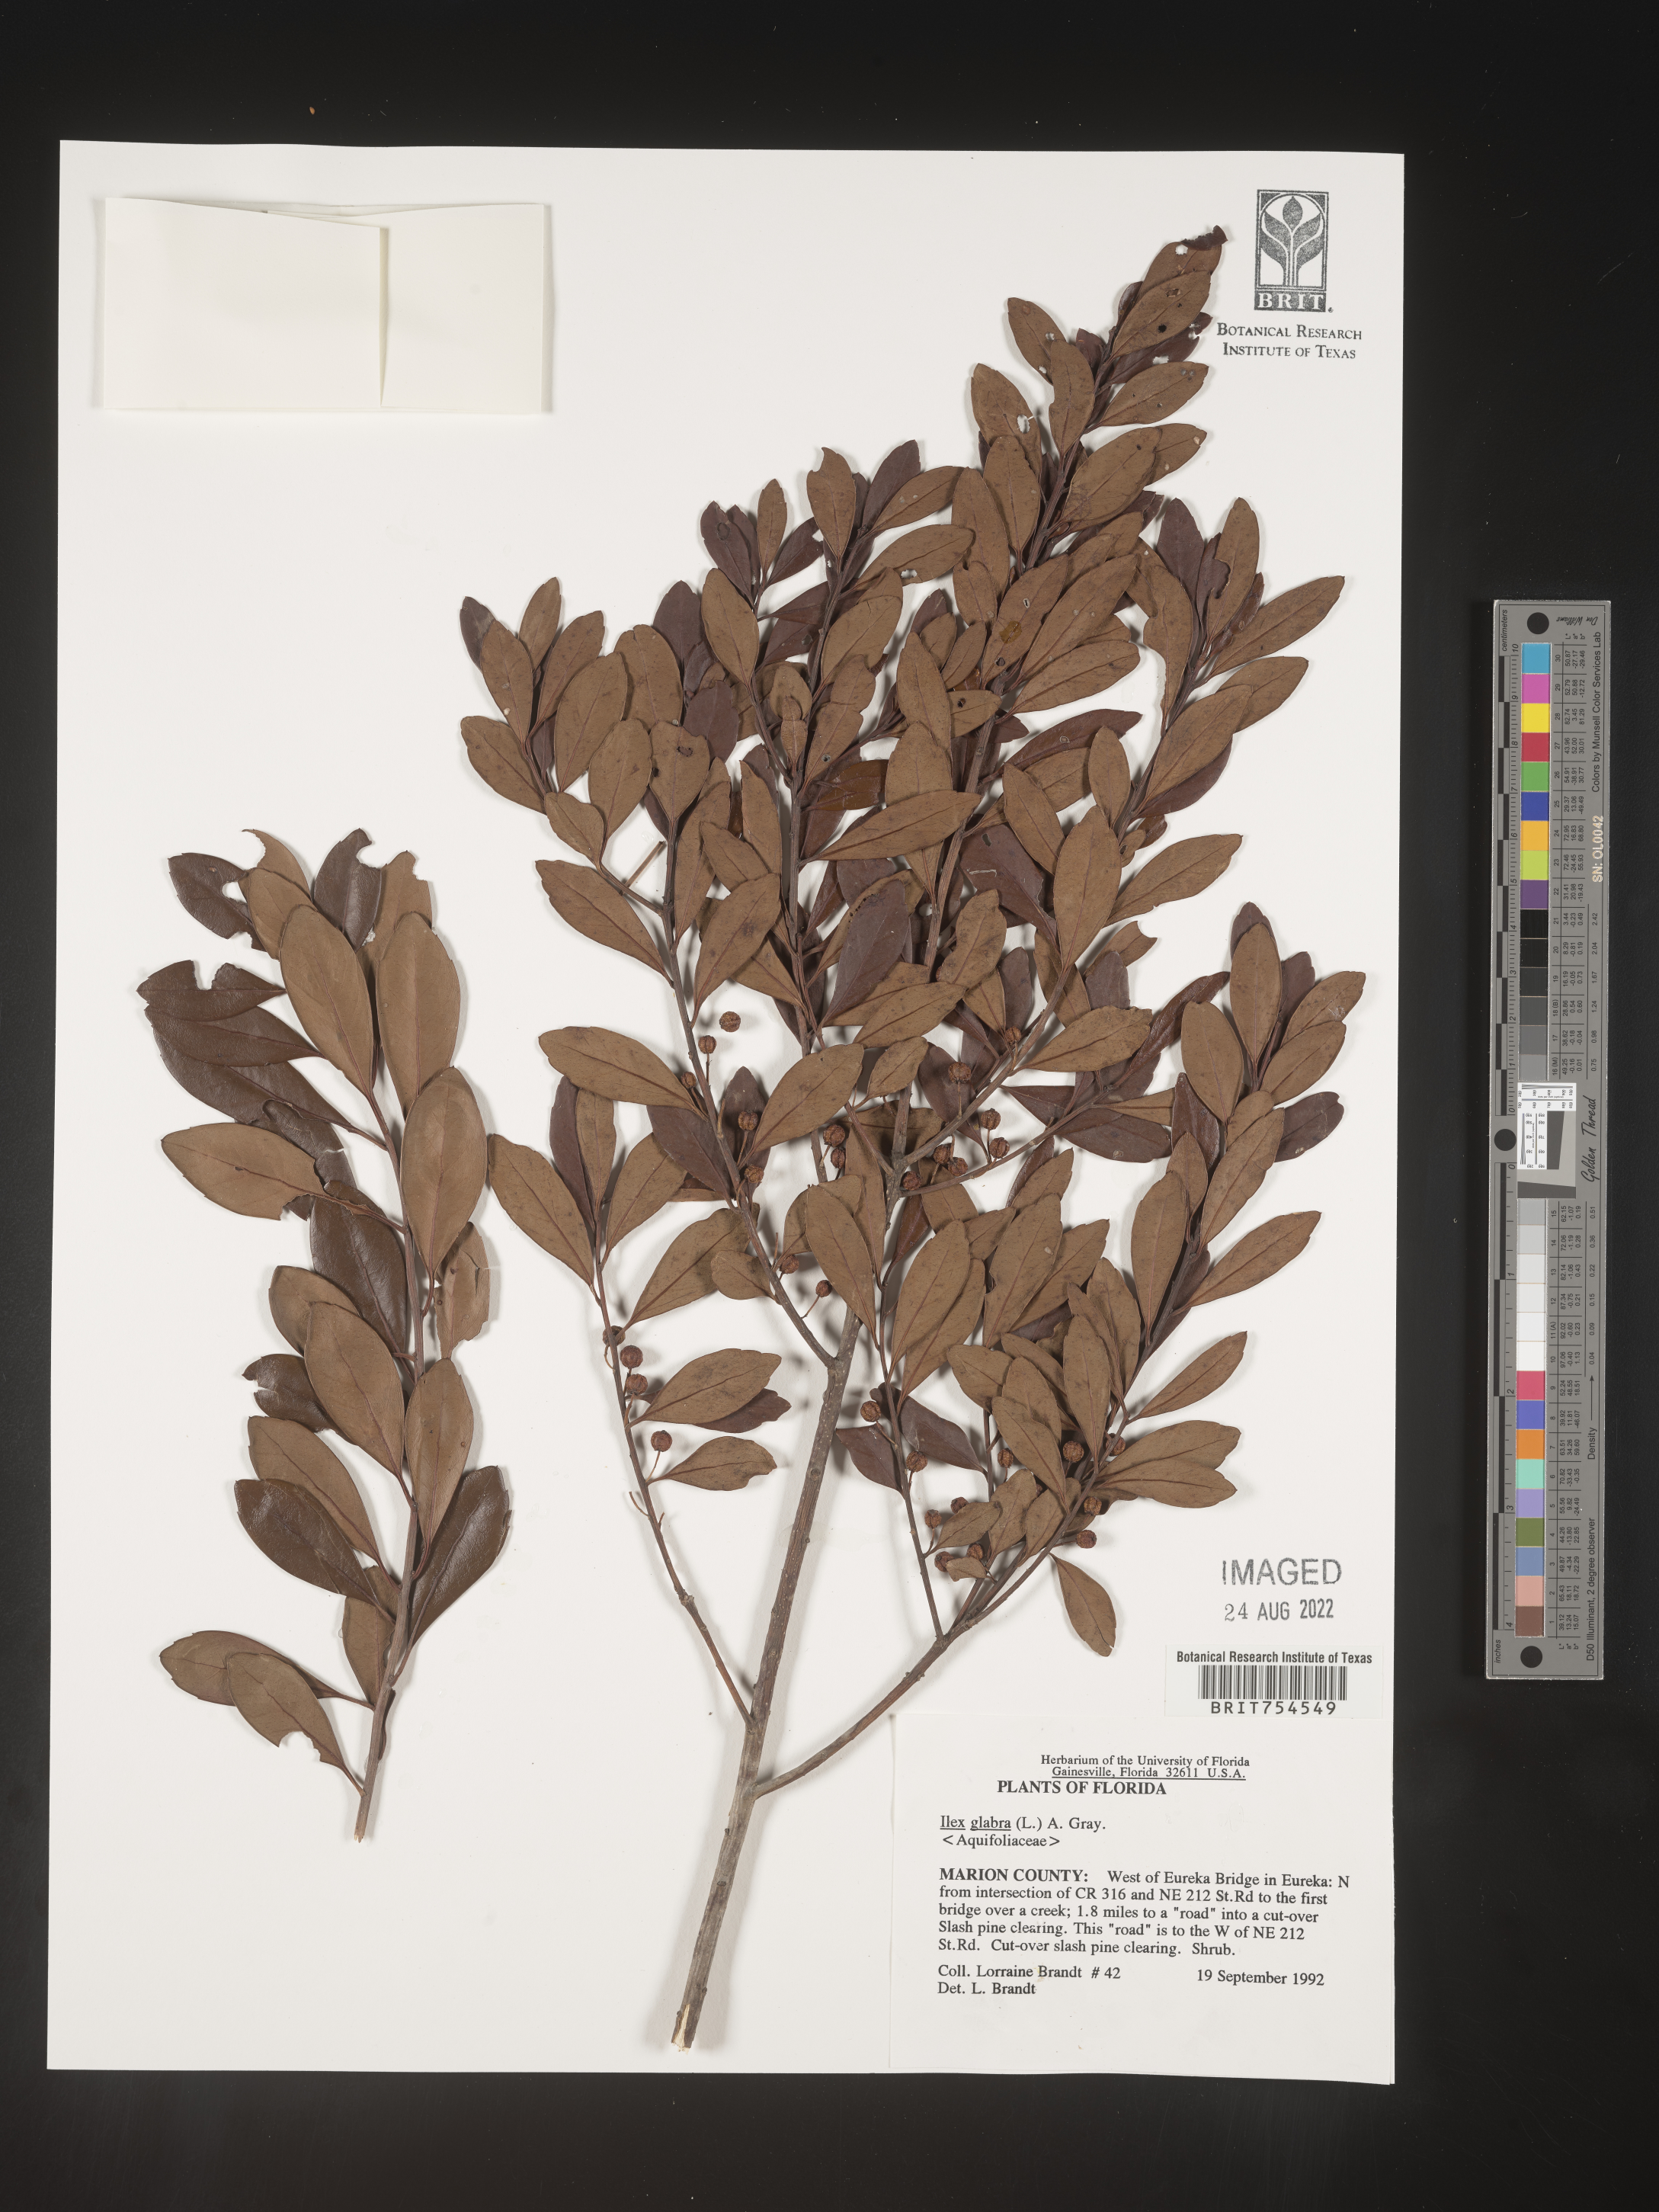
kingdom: Plantae
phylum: Tracheophyta
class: Magnoliopsida
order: Aquifoliales
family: Aquifoliaceae
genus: Ilex
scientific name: Ilex
